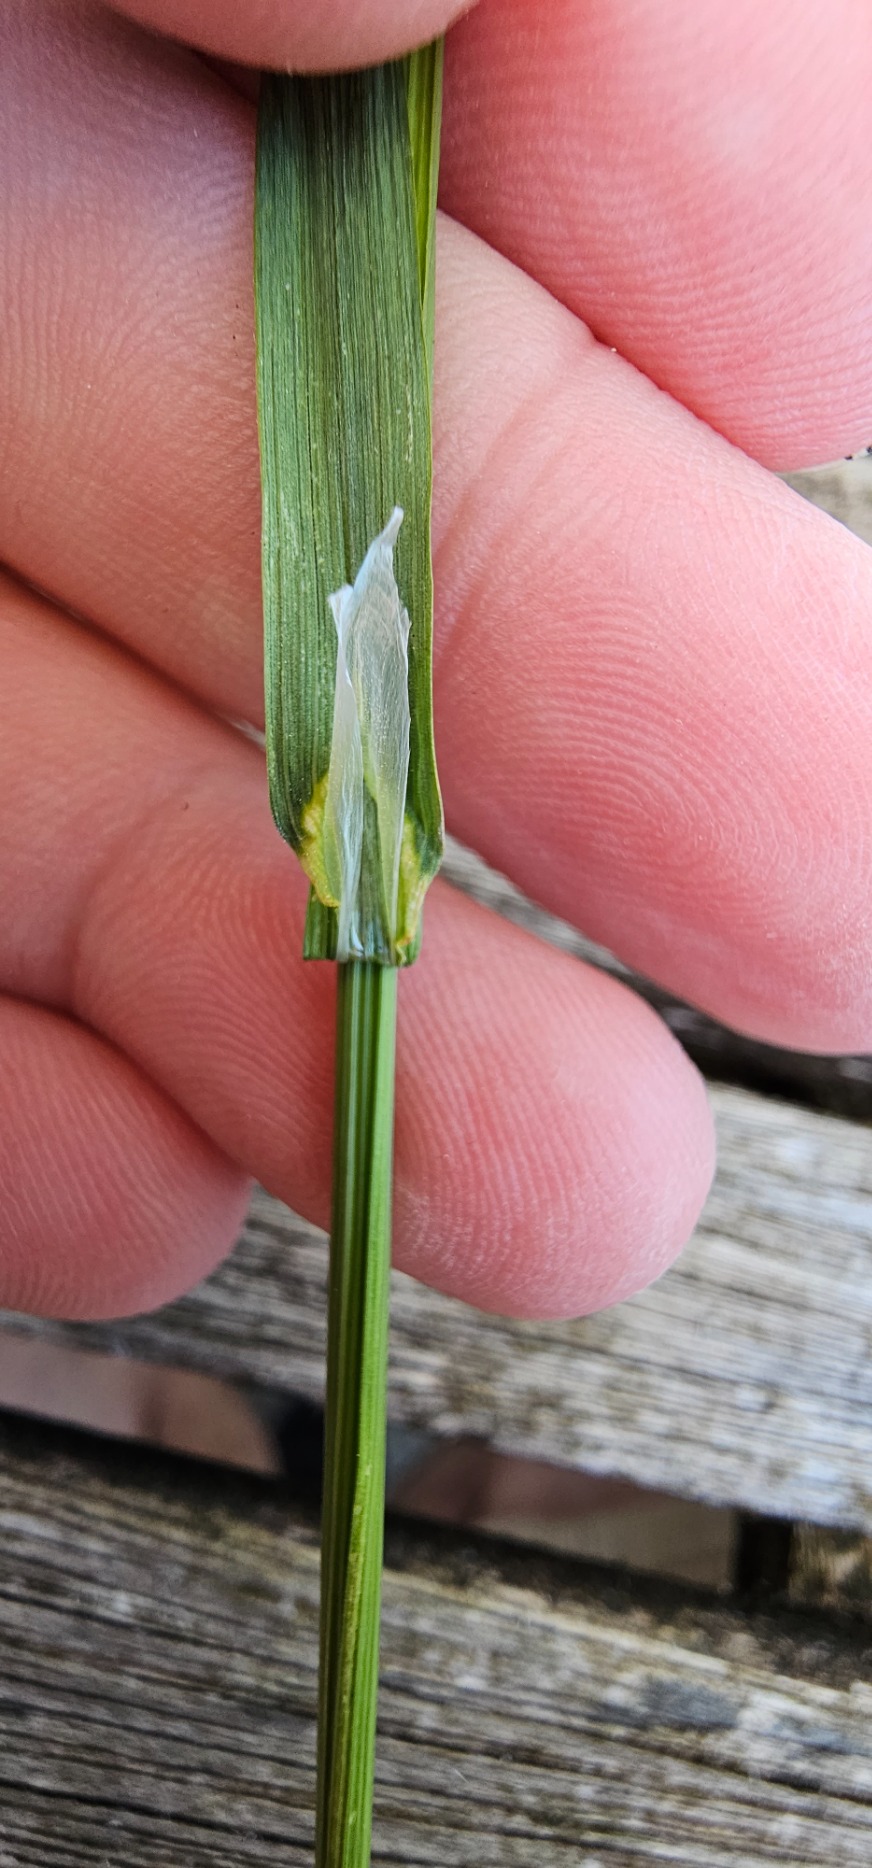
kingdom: Plantae
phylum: Tracheophyta
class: Liliopsida
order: Poales
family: Poaceae
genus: Poa
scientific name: Poa trivialis
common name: Almindelig rapgræs
